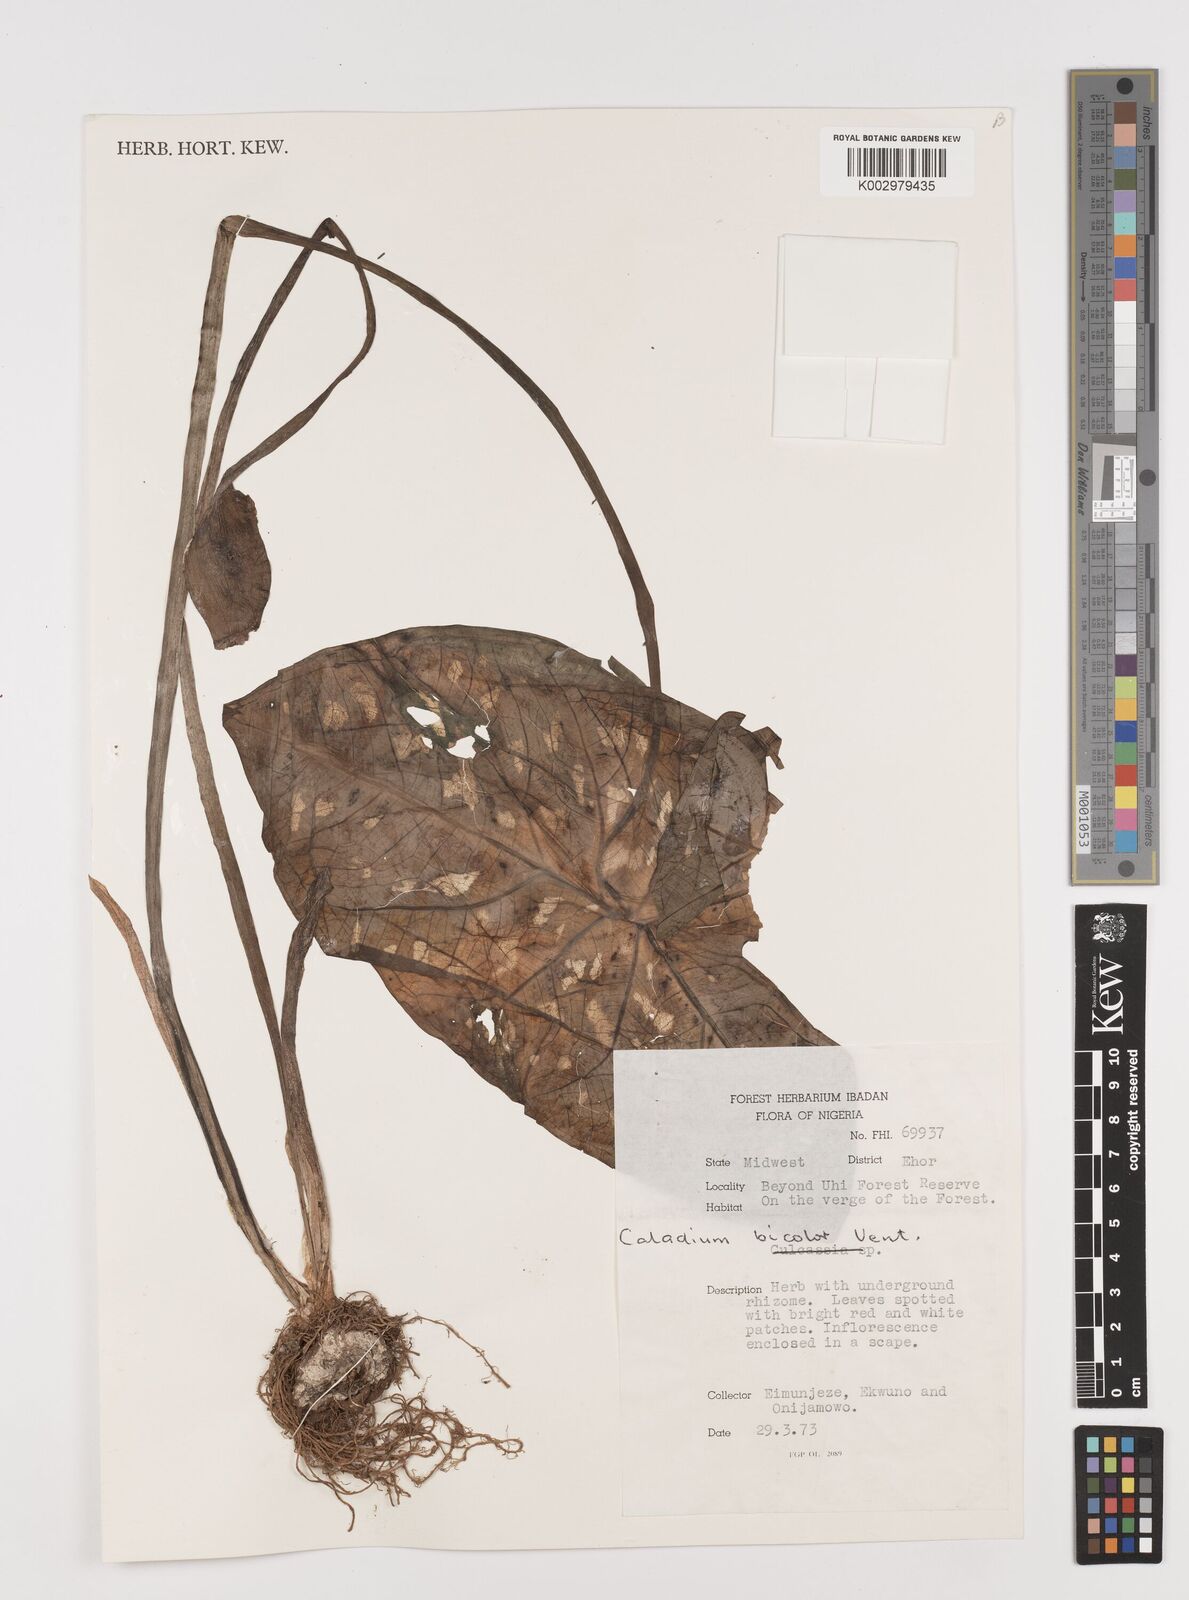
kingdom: Plantae
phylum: Tracheophyta
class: Liliopsida
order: Alismatales
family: Araceae
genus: Caladium
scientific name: Caladium bicolor
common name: Artist's pallet
